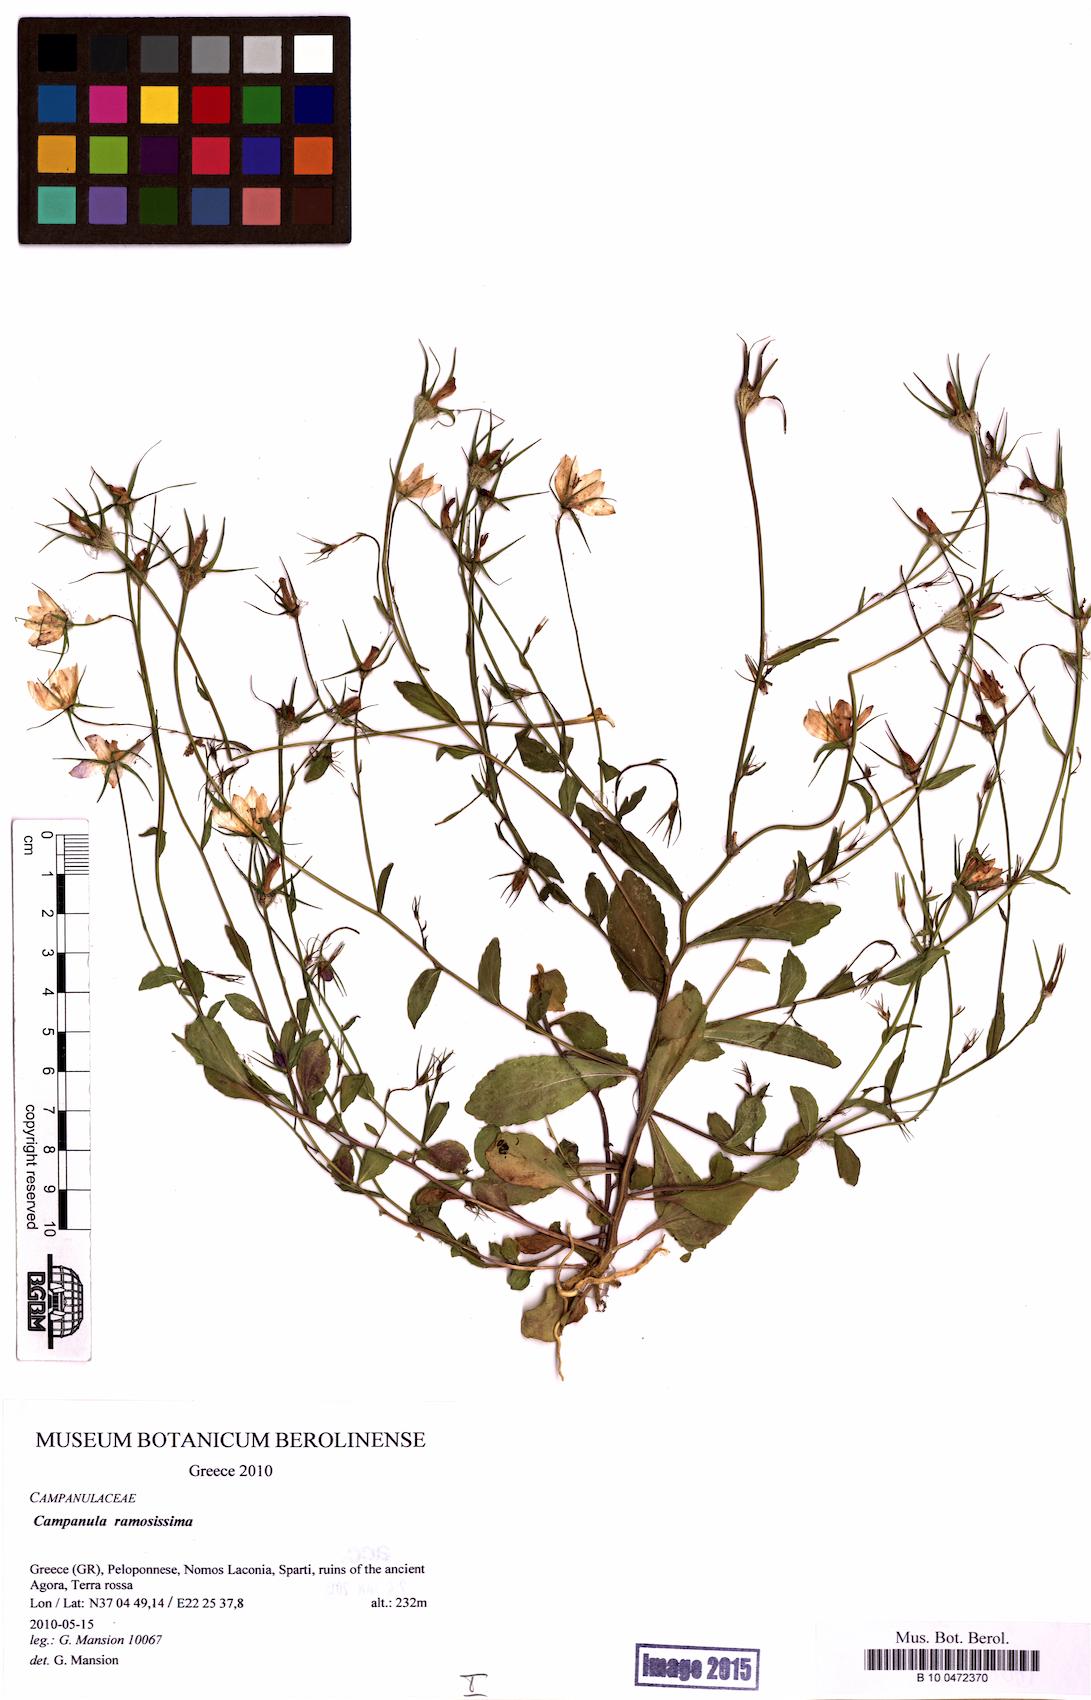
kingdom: Plantae
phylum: Tracheophyta
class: Magnoliopsida
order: Asterales
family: Campanulaceae
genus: Campanula
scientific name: Campanula ramosissima
